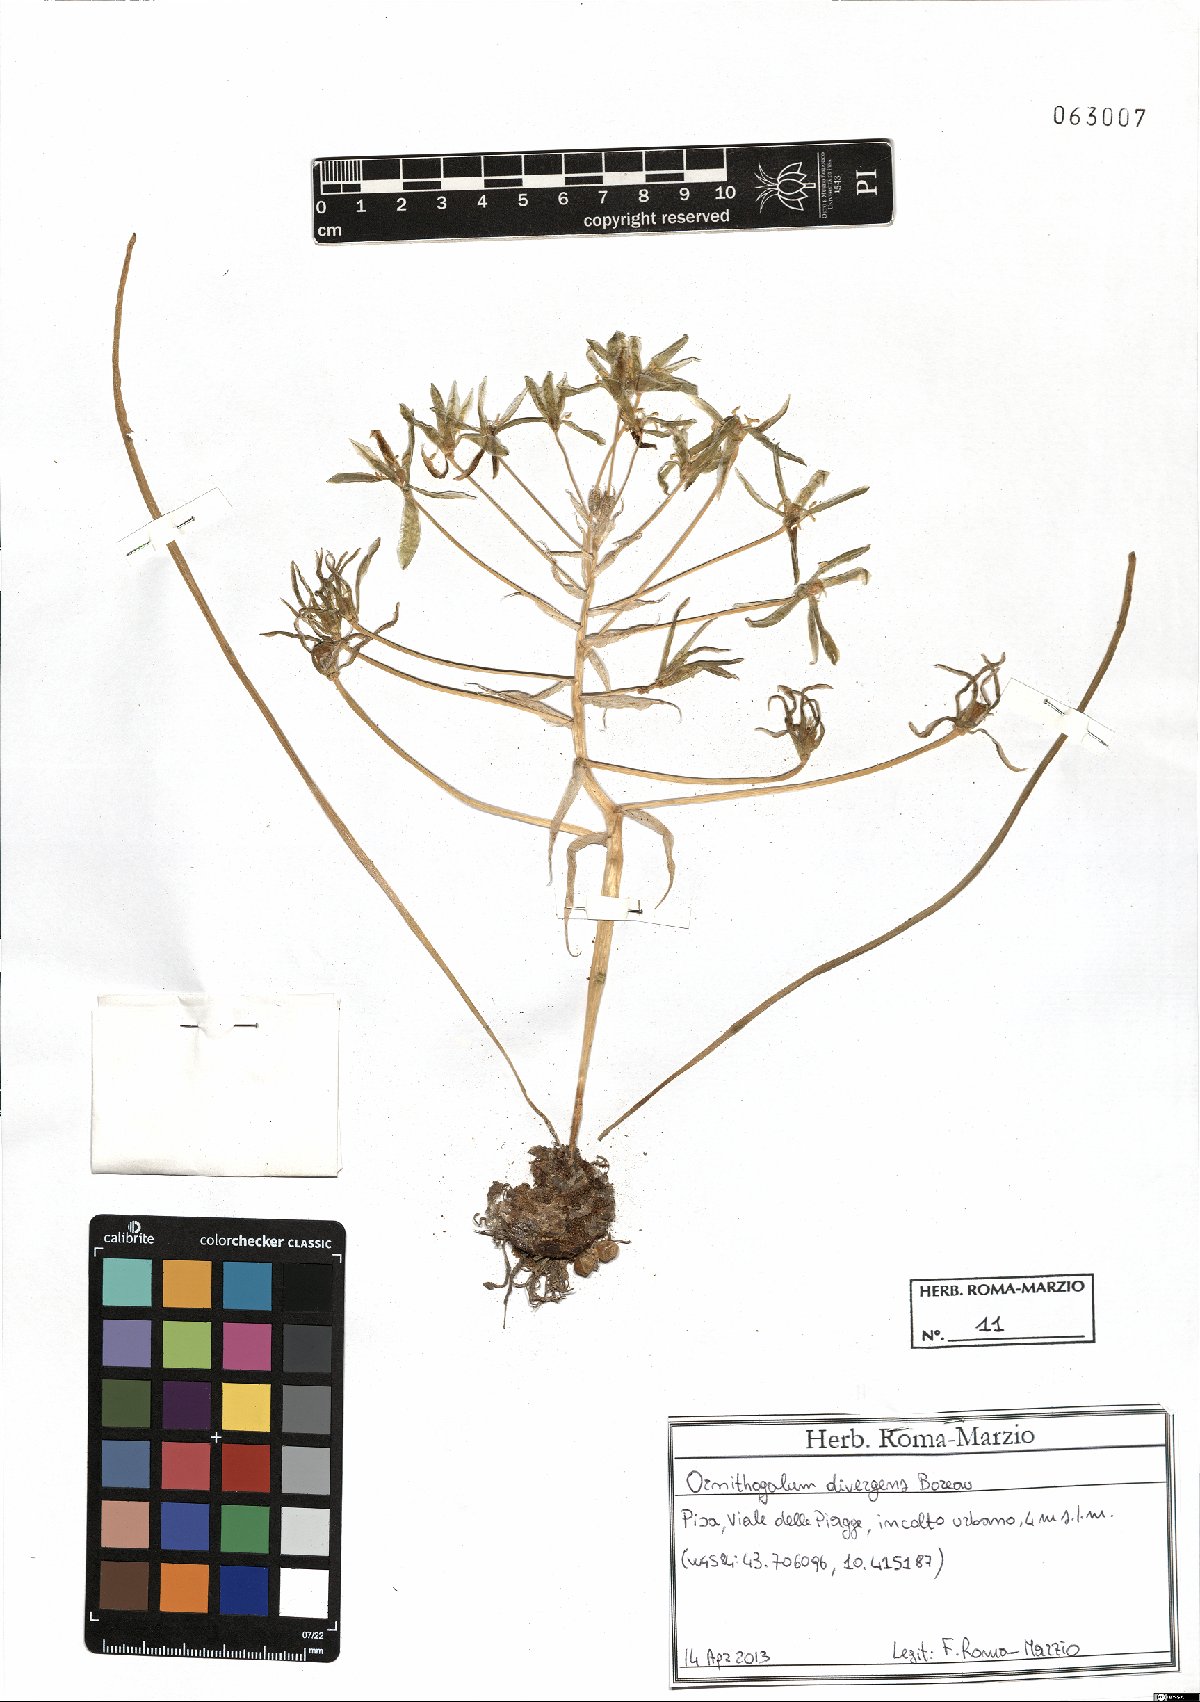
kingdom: Plantae
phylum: Tracheophyta
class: Liliopsida
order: Asparagales
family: Asparagaceae
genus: Ornithogalum
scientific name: Ornithogalum divergens
